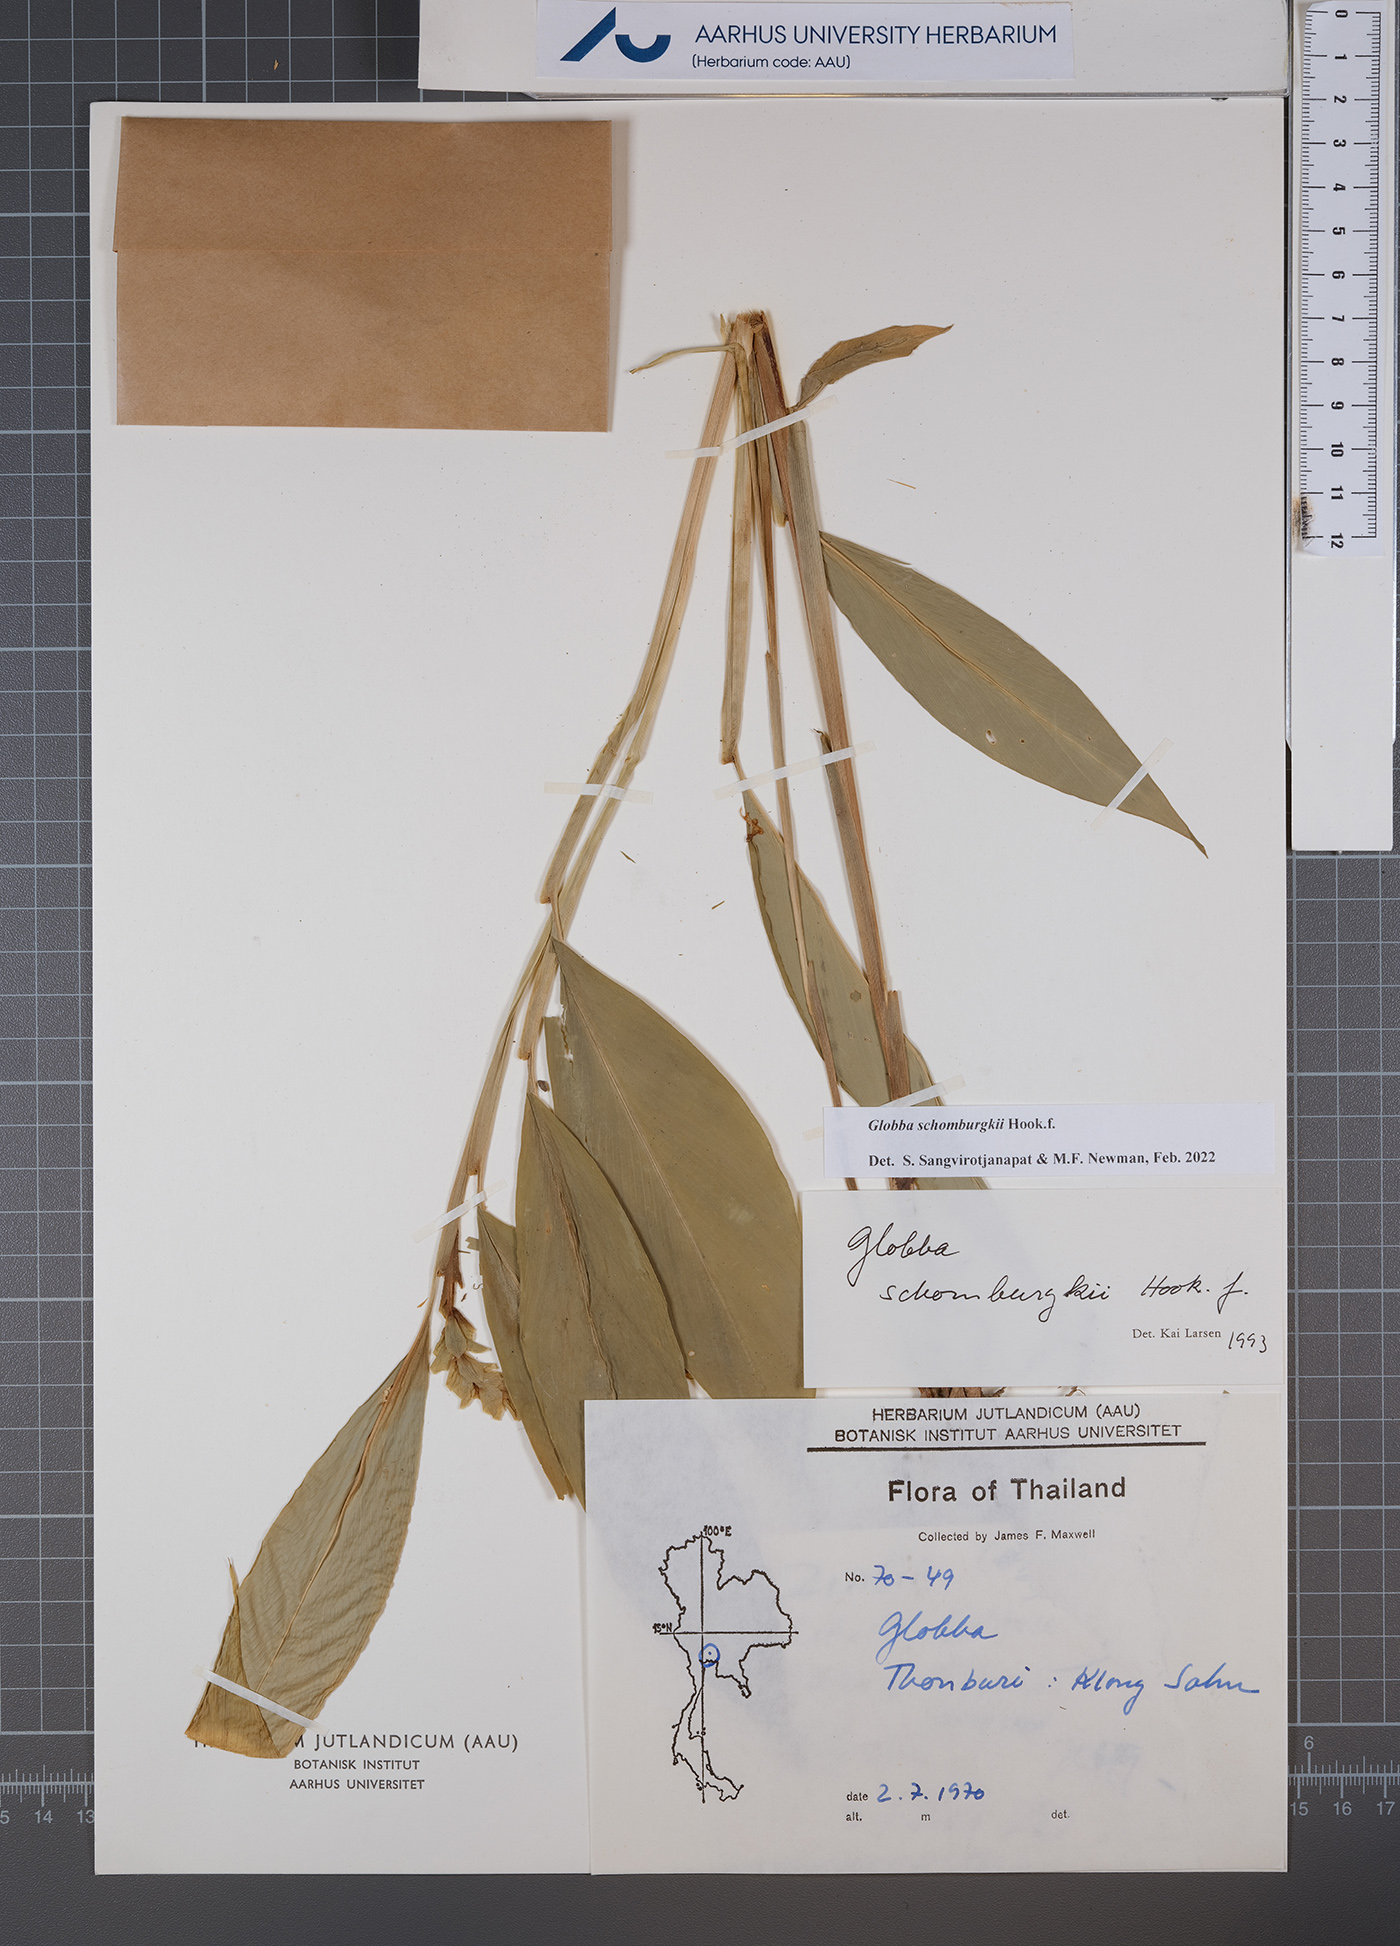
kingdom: Plantae
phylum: Tracheophyta
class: Liliopsida
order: Zingiberales
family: Zingiberaceae
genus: Globba
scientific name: Globba schomburgkii
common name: Dancing girl ginger
